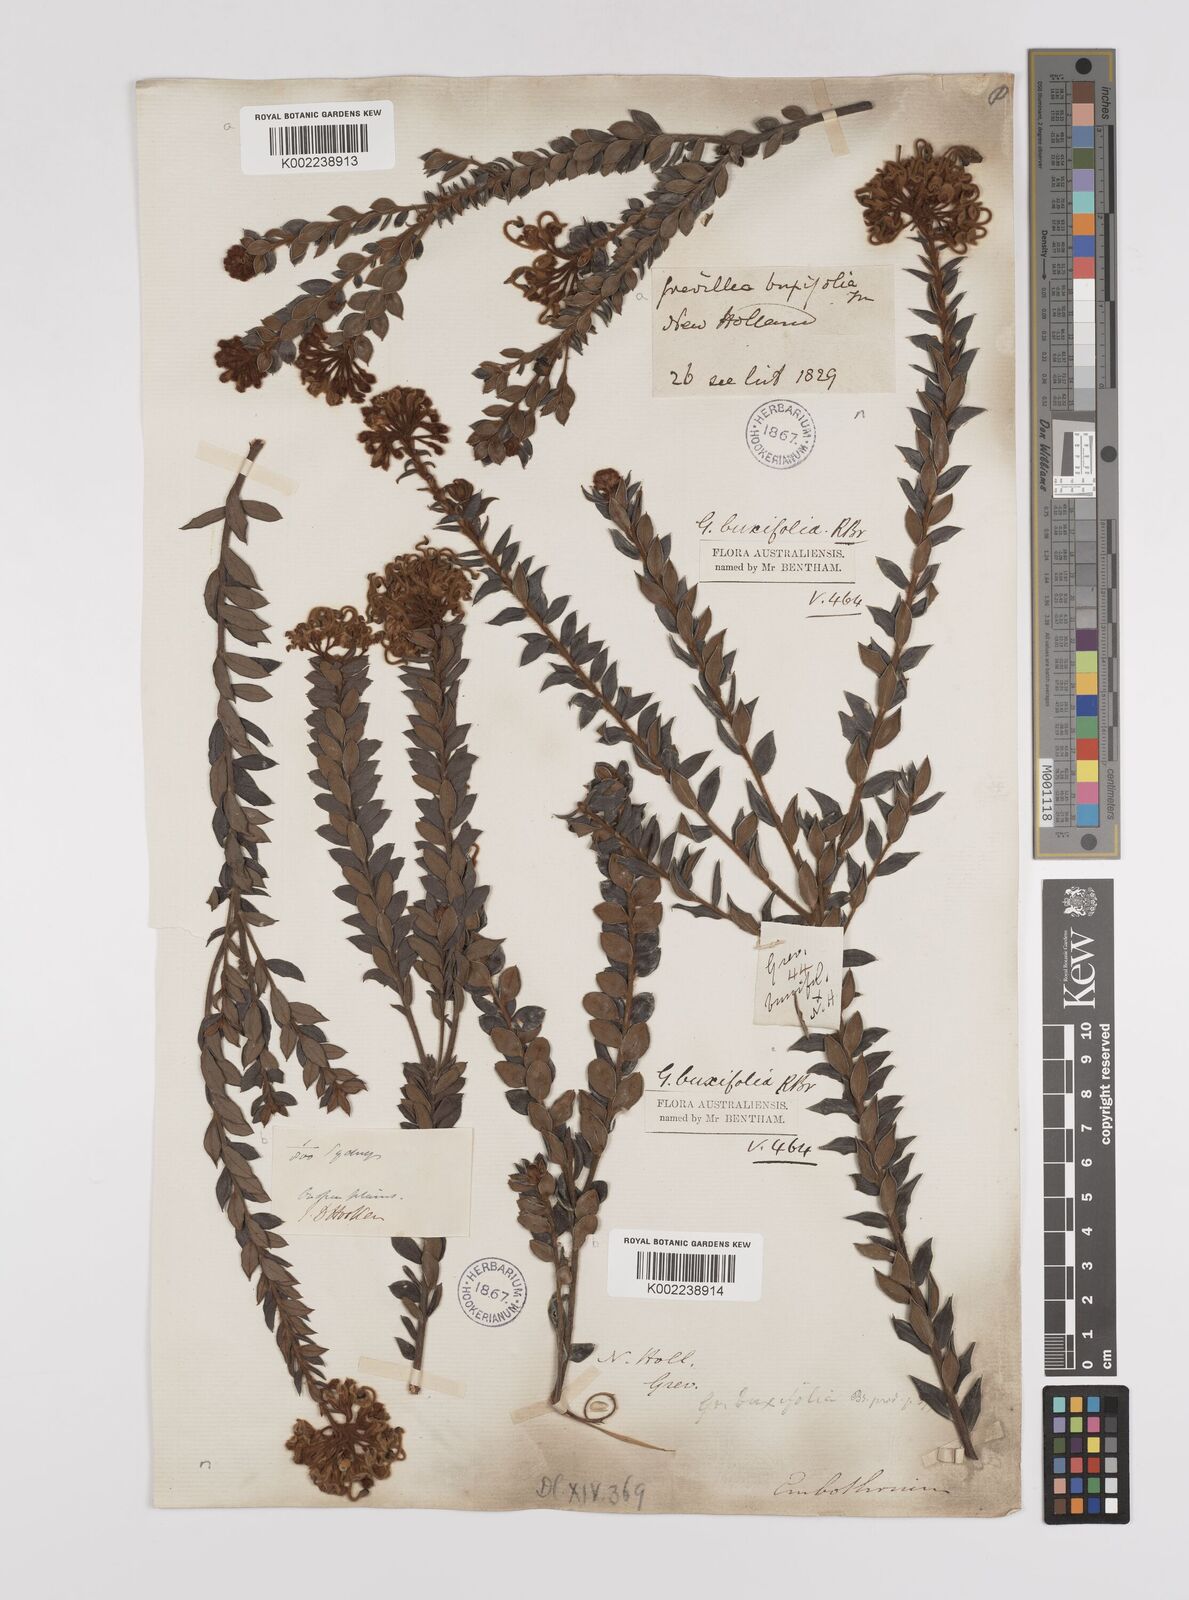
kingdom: Plantae
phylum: Tracheophyta
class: Magnoliopsida
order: Proteales
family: Proteaceae
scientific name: Proteaceae
